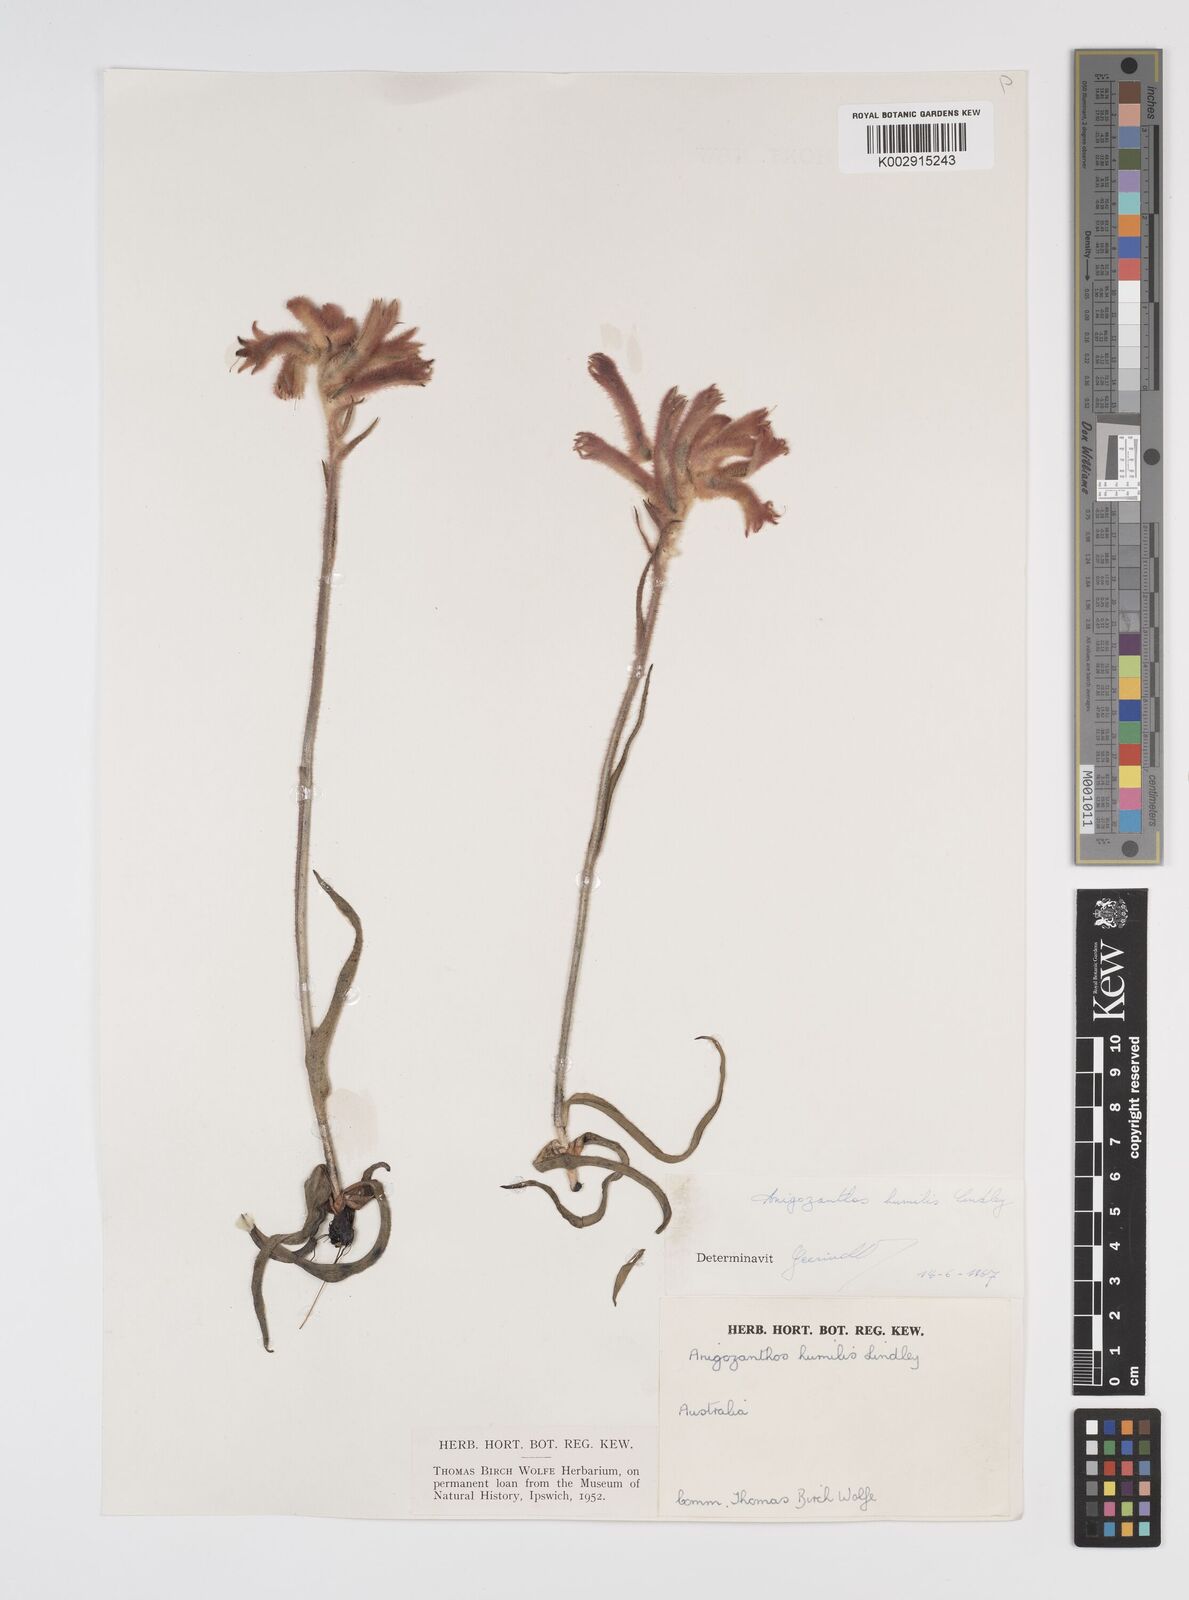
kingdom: Plantae
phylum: Tracheophyta
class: Liliopsida
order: Commelinales
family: Haemodoraceae
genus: Anigozanthos
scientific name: Anigozanthos humilis
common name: Cat's-paw
